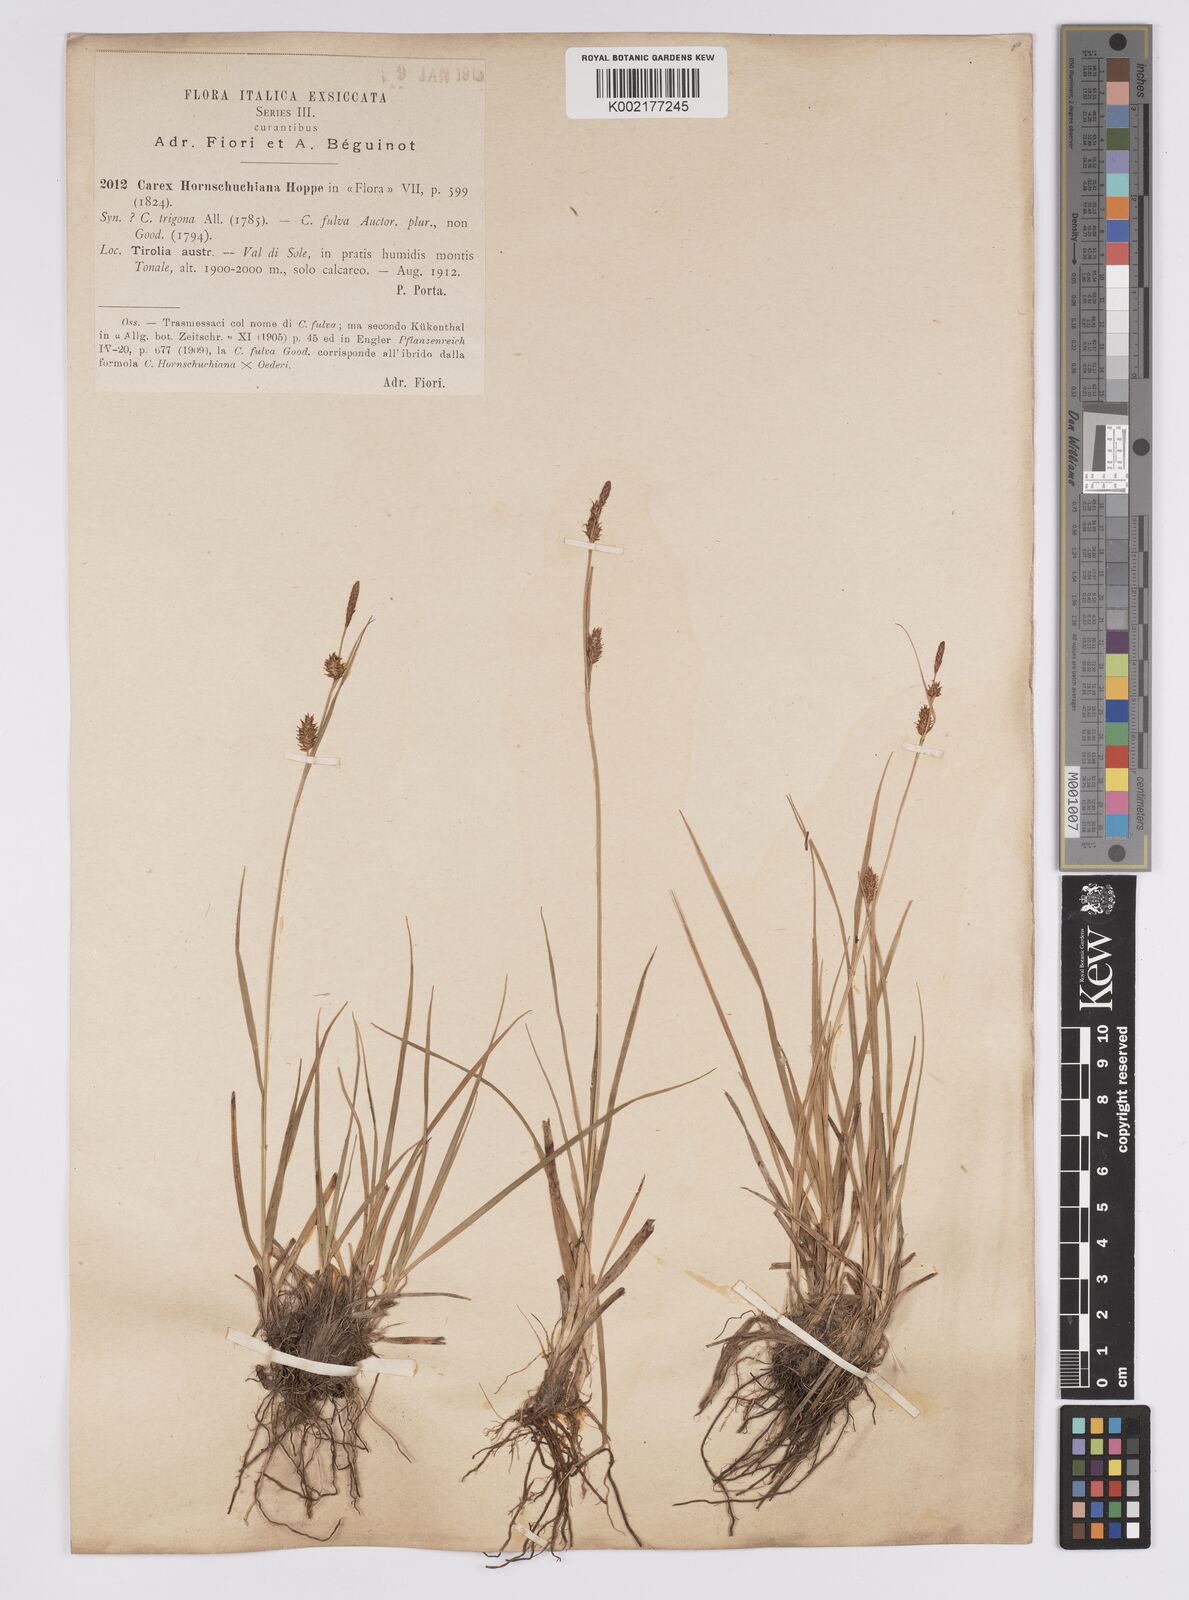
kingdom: Plantae
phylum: Tracheophyta
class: Liliopsida
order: Poales
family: Cyperaceae
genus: Carex
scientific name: Carex hostiana
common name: Tawny sedge
